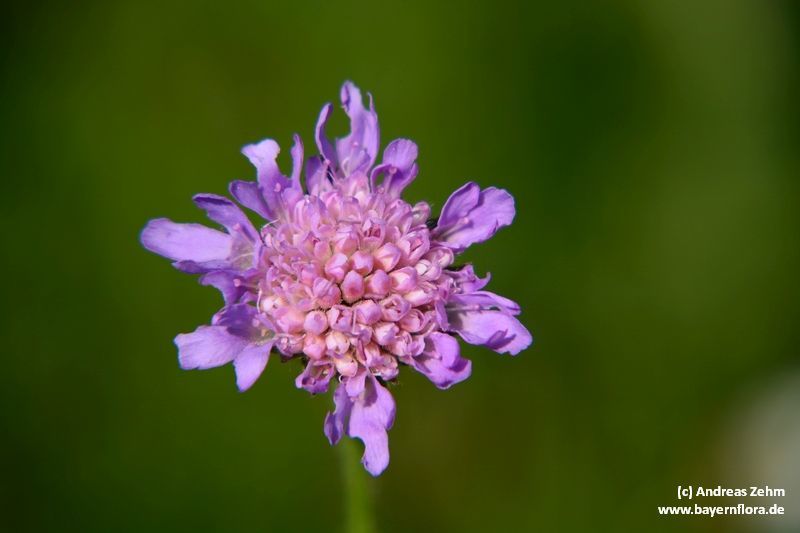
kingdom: Plantae
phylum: Tracheophyta
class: Magnoliopsida
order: Dipsacales
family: Caprifoliaceae
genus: Knautia
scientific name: Knautia arvensis
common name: Field scabiosa
